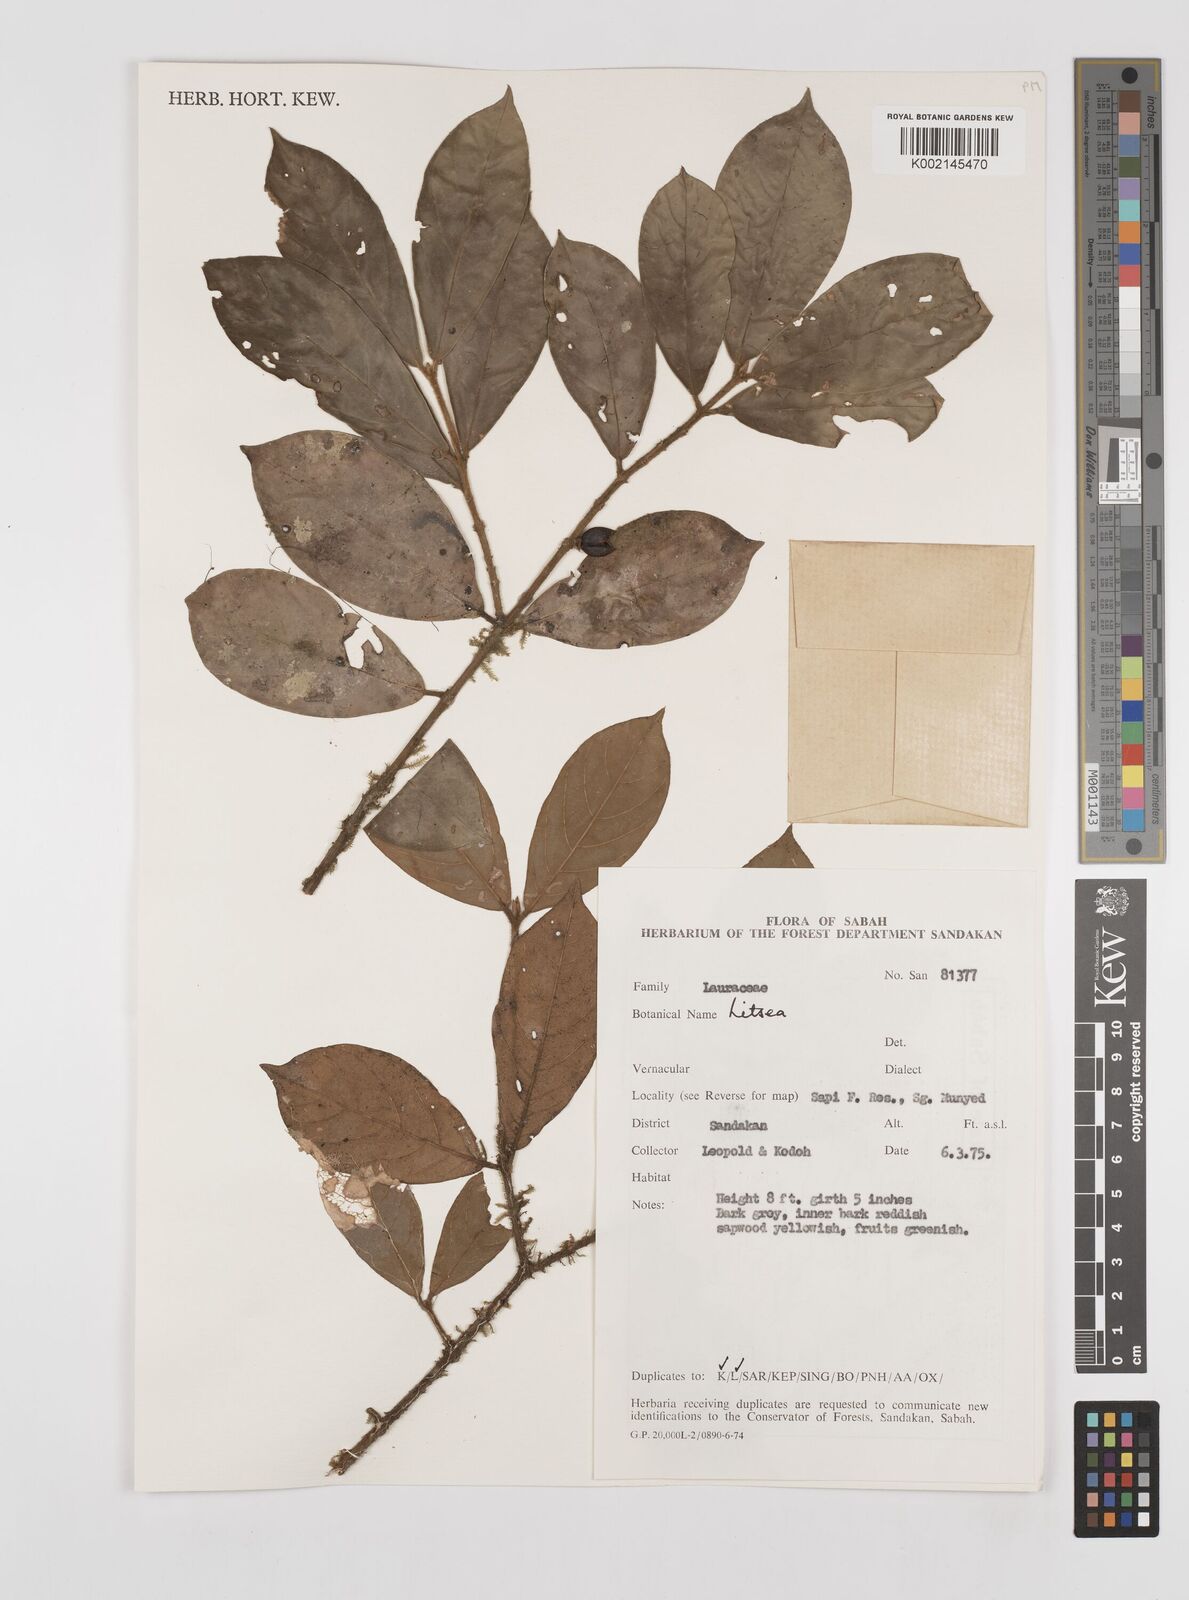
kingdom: Plantae
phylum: Tracheophyta
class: Magnoliopsida
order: Laurales
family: Lauraceae
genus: Litsea
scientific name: Litsea
